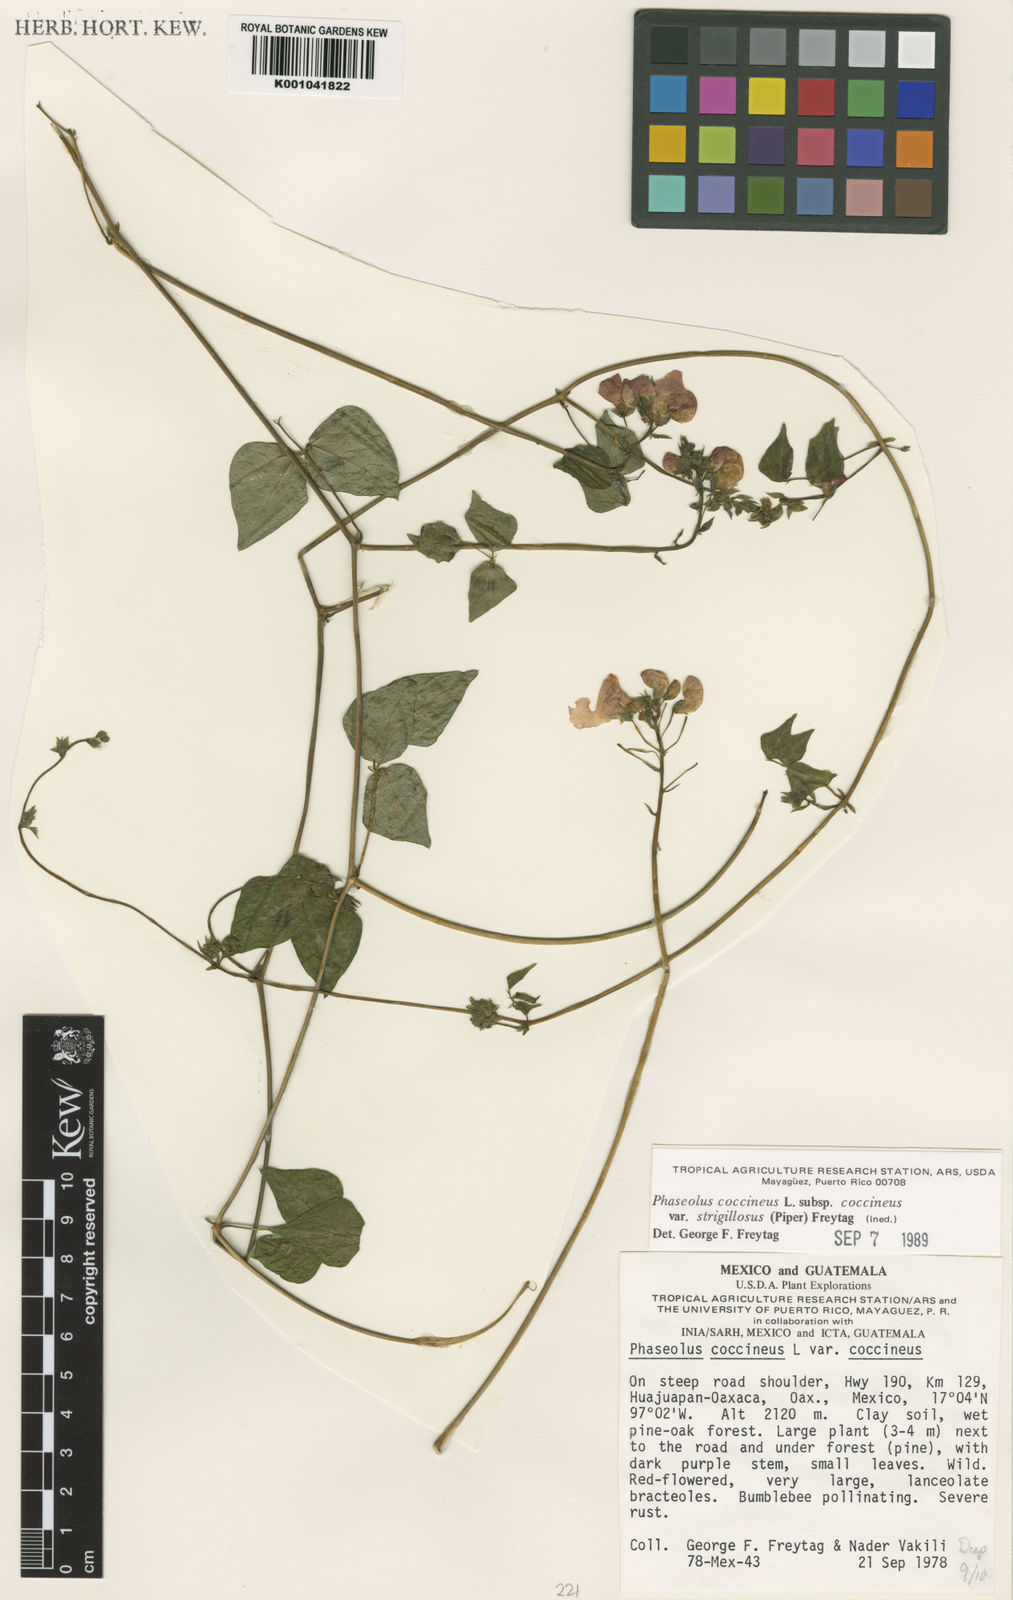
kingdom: Plantae
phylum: Tracheophyta
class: Magnoliopsida
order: Fabales
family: Fabaceae
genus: Phaseolus
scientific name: Phaseolus
